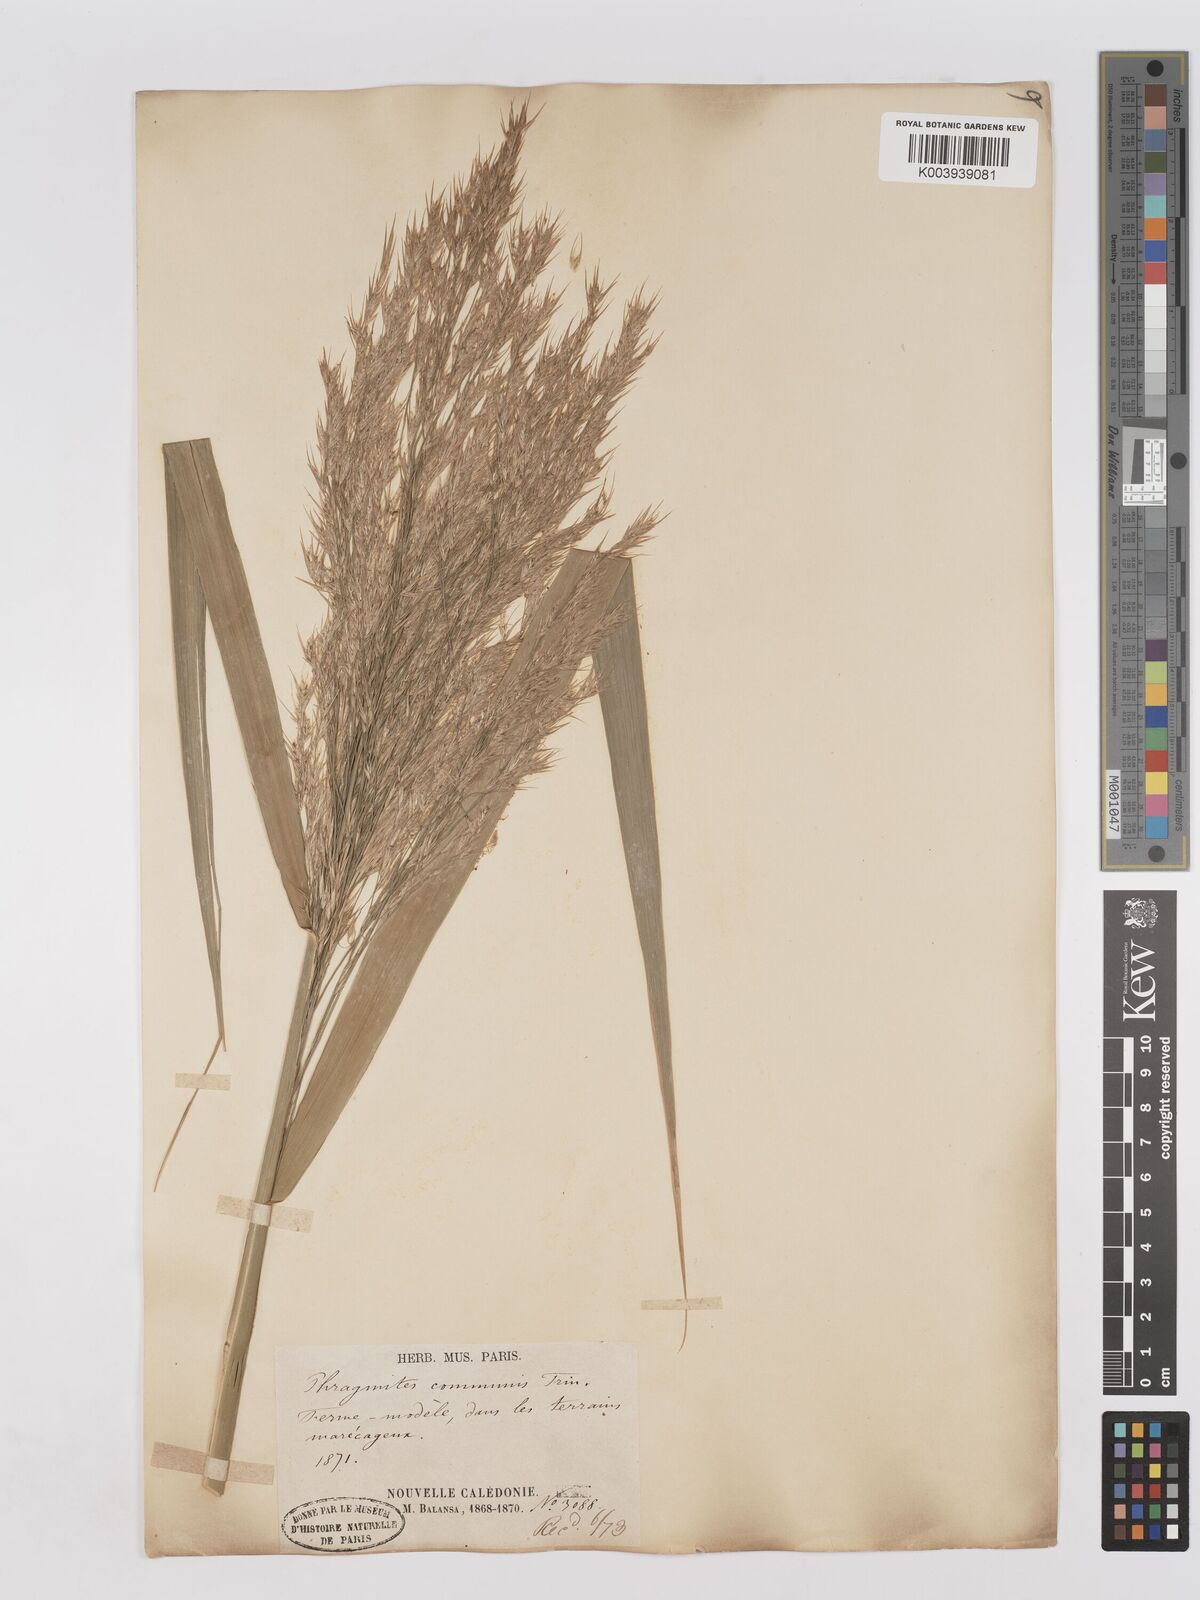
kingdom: Plantae
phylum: Tracheophyta
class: Liliopsida
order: Poales
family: Poaceae
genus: Phragmites
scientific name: Phragmites karka
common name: Tropical reed
